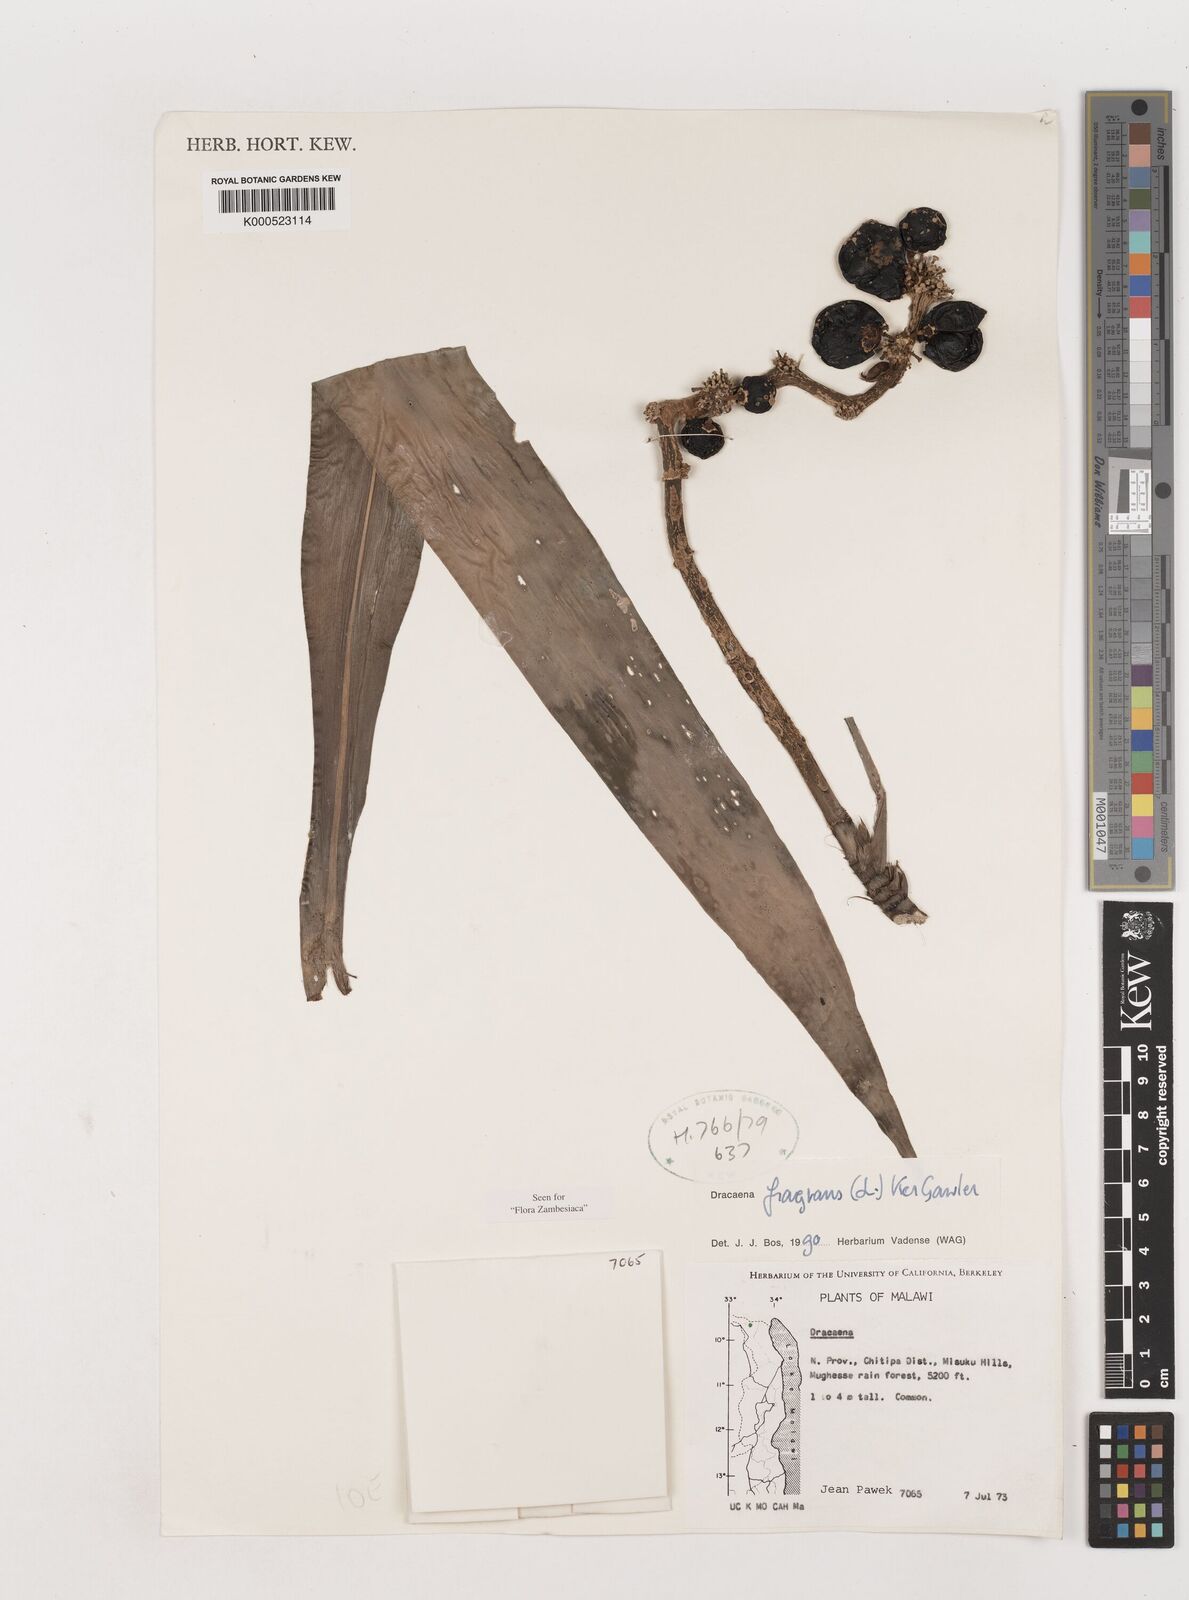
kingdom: Plantae
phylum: Tracheophyta
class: Liliopsida
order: Asparagales
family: Asparagaceae
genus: Dracaena
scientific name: Dracaena fragrans
